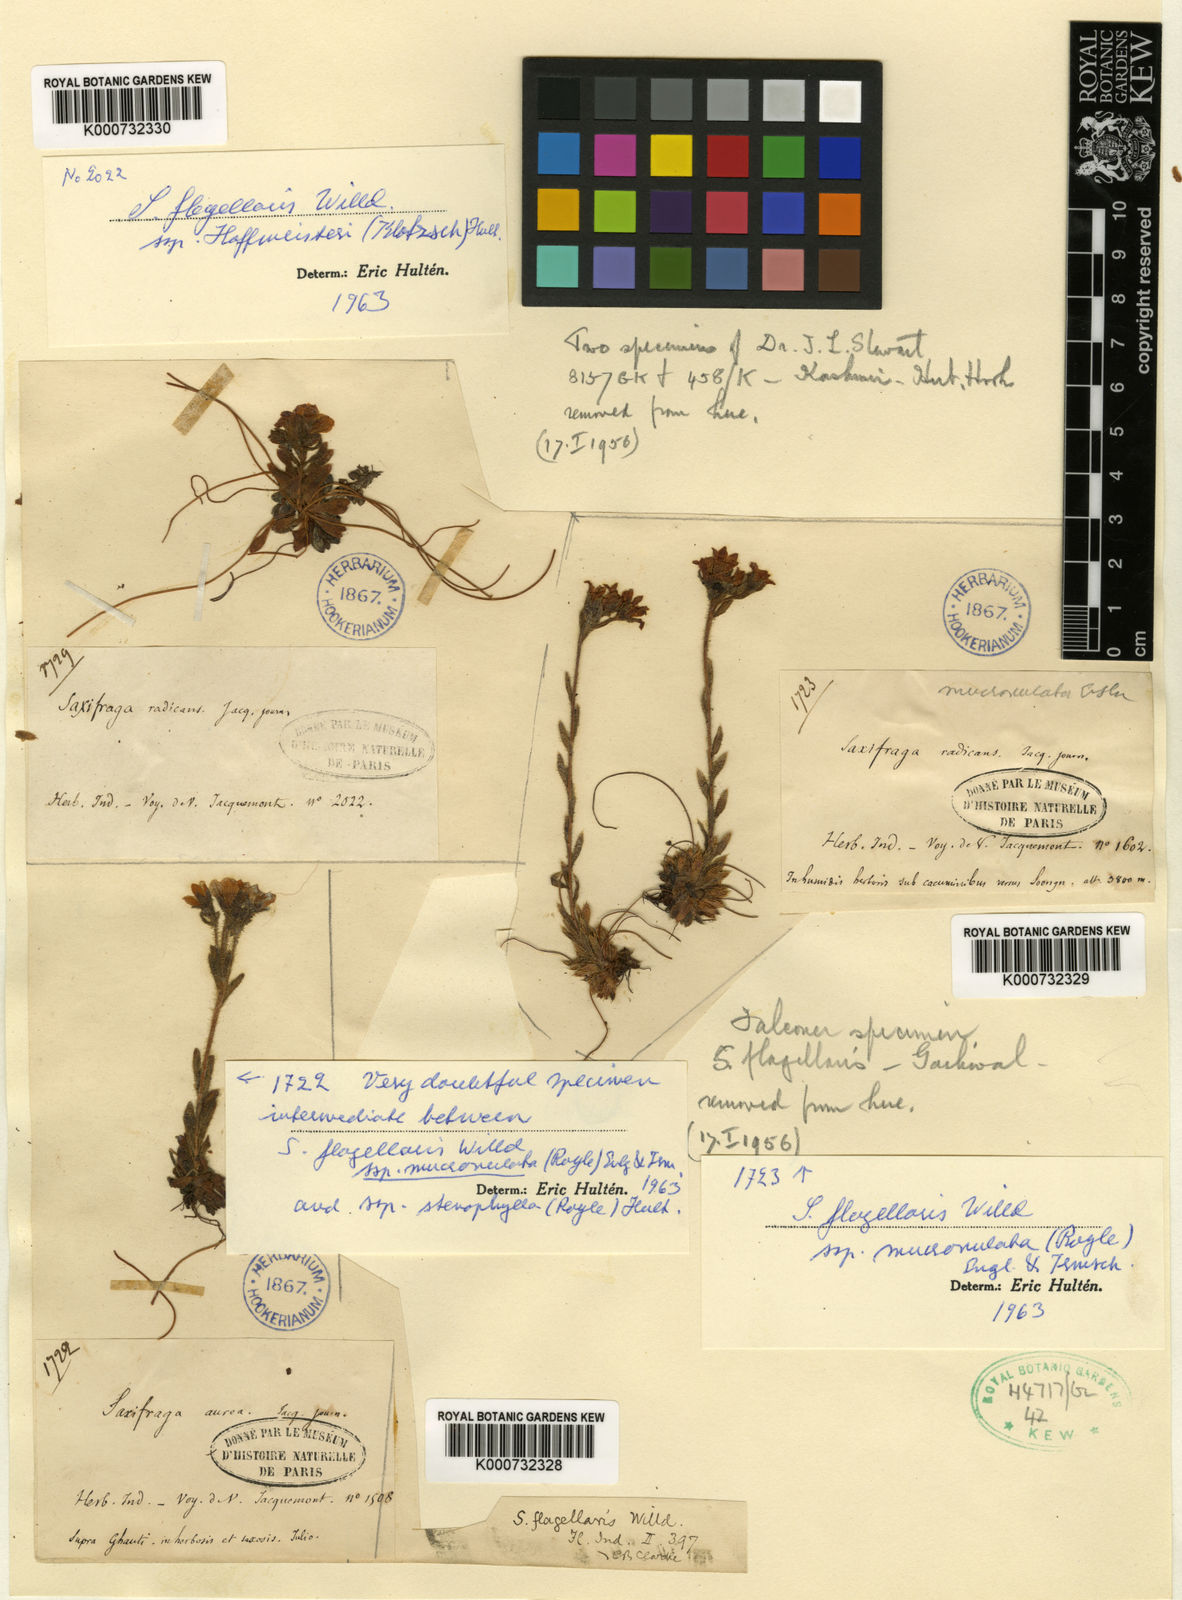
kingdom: Plantae
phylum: Tracheophyta
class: Magnoliopsida
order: Saxifragales
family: Saxifragaceae
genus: Saxifraga
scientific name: Saxifraga flagellaris
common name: Spider saxifrage
